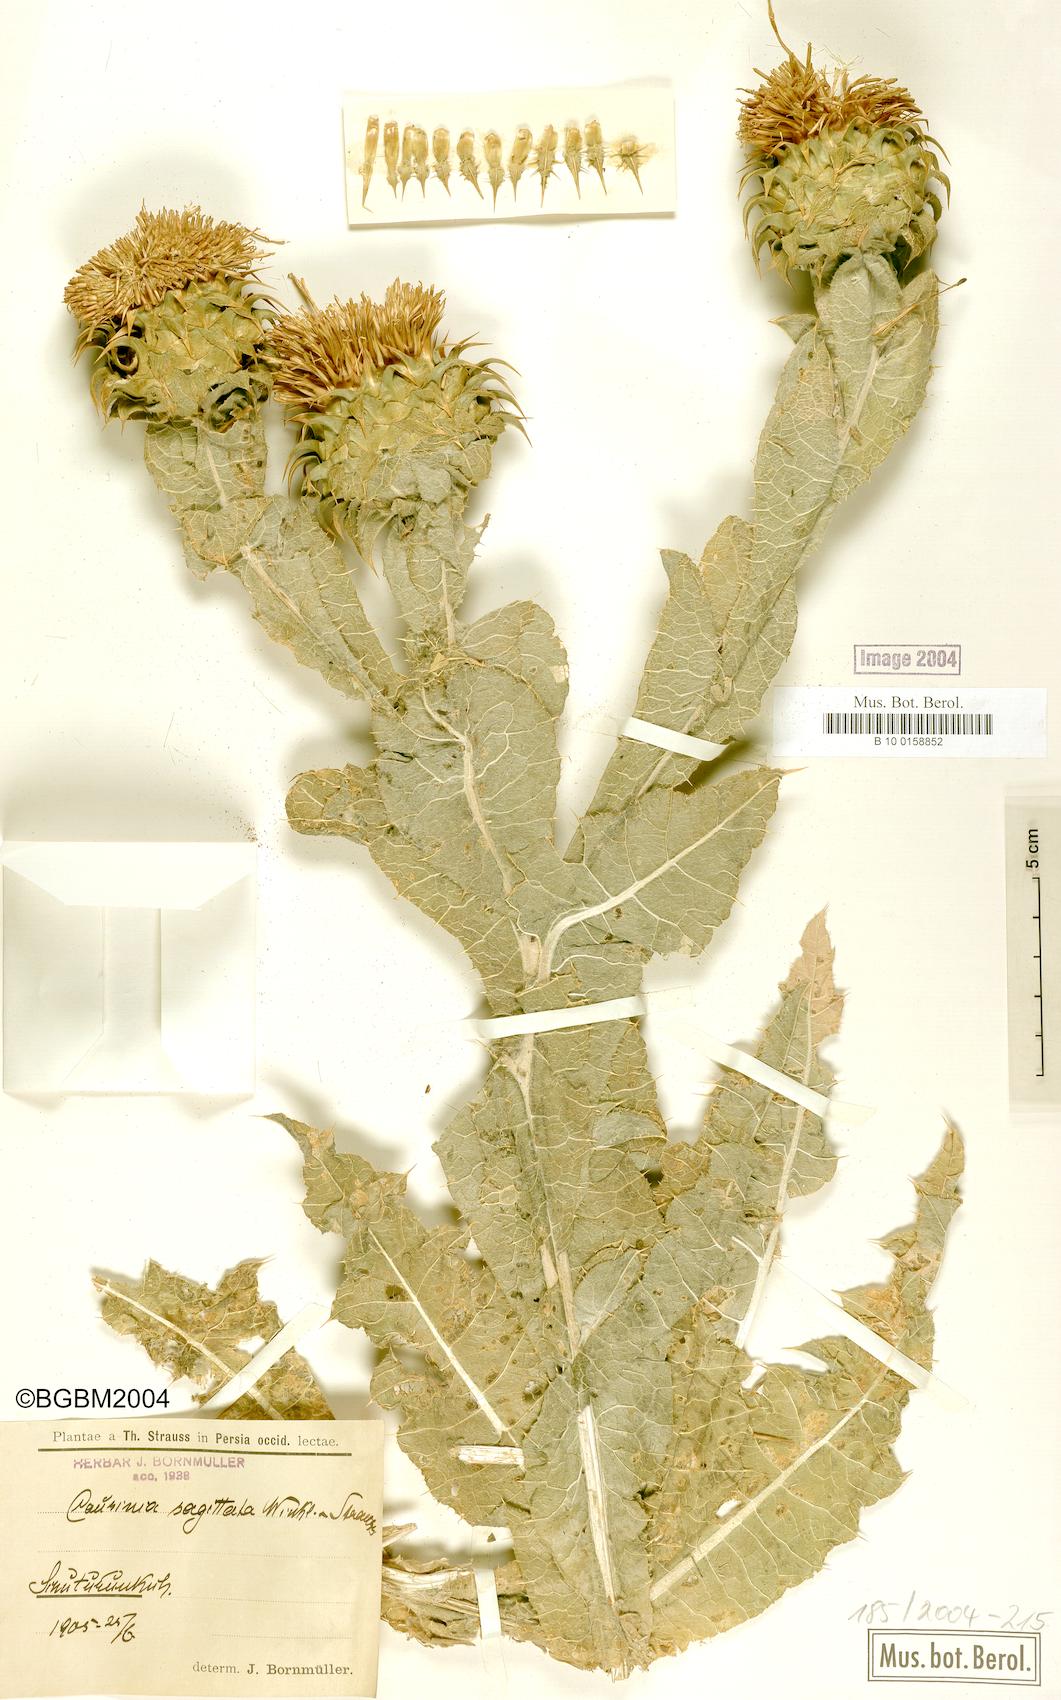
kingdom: Plantae
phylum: Tracheophyta
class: Magnoliopsida
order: Asterales
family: Asteraceae
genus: Cousinia
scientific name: Cousinia sagittata
